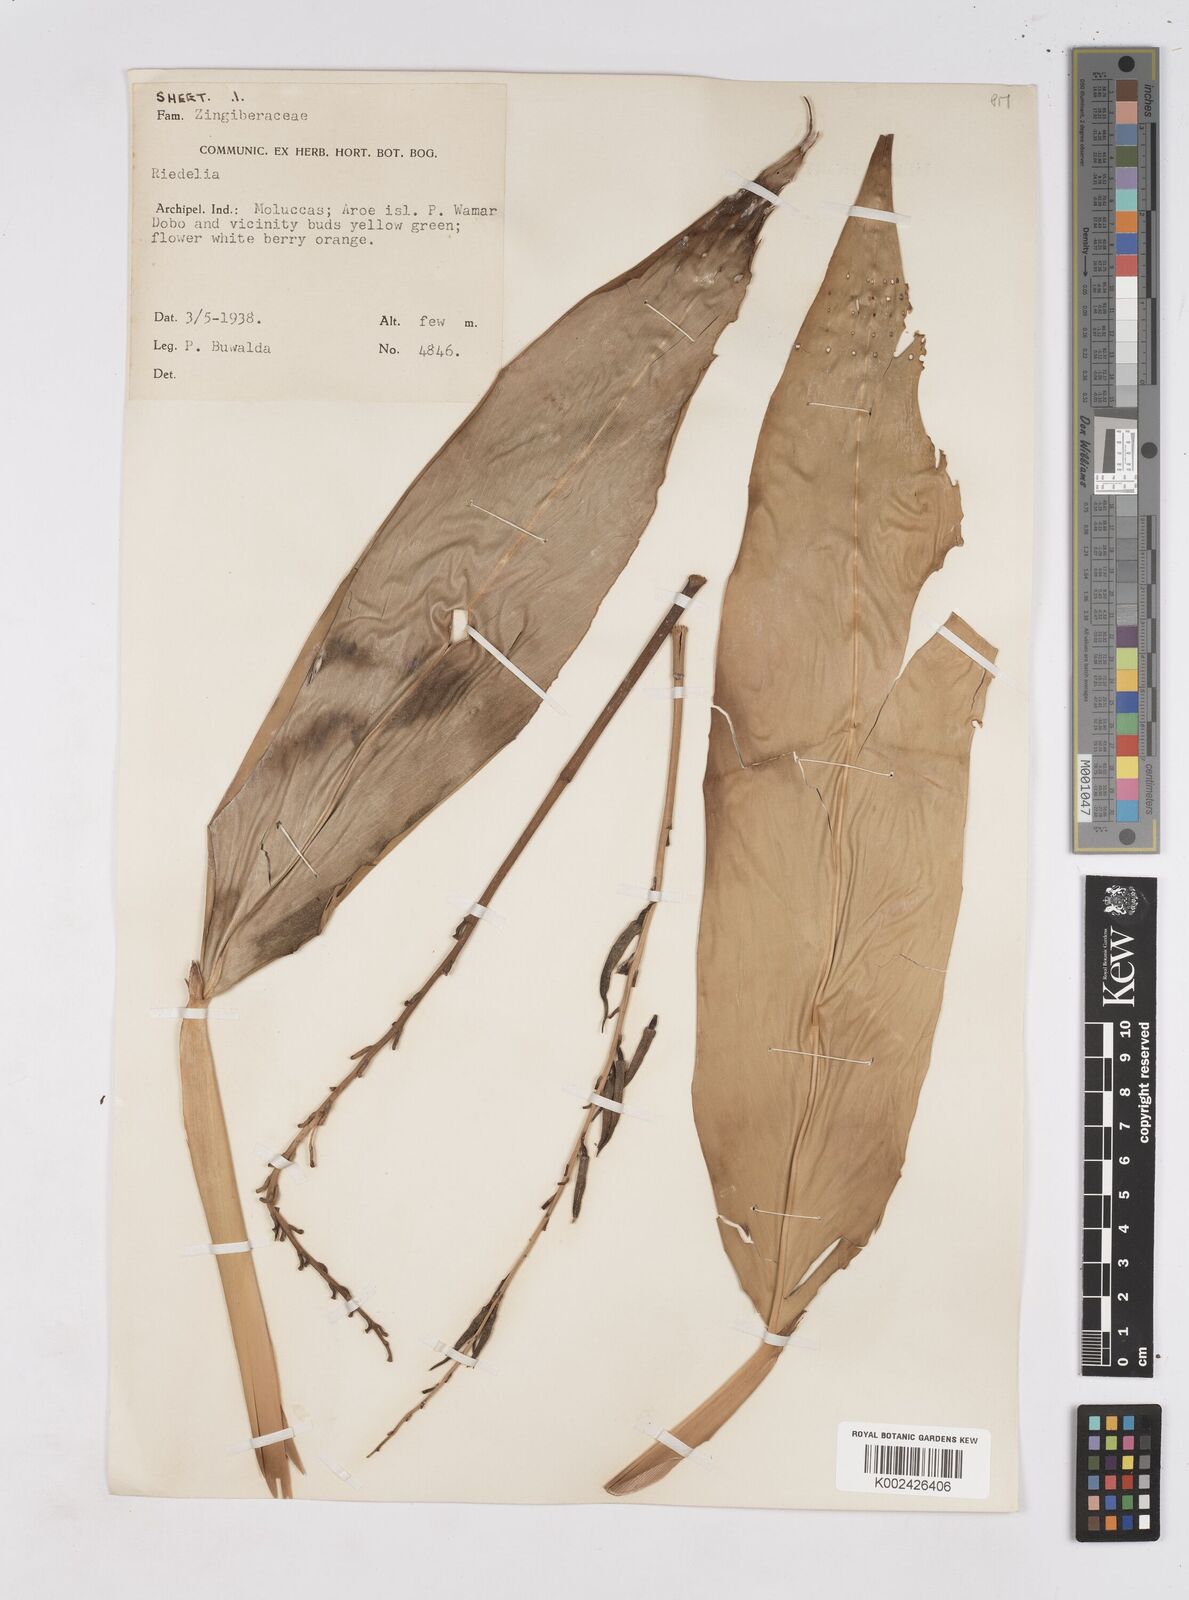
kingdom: Plantae
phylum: Tracheophyta
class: Liliopsida
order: Zingiberales
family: Zingiberaceae
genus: Riedelia
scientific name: Riedelia lanata
